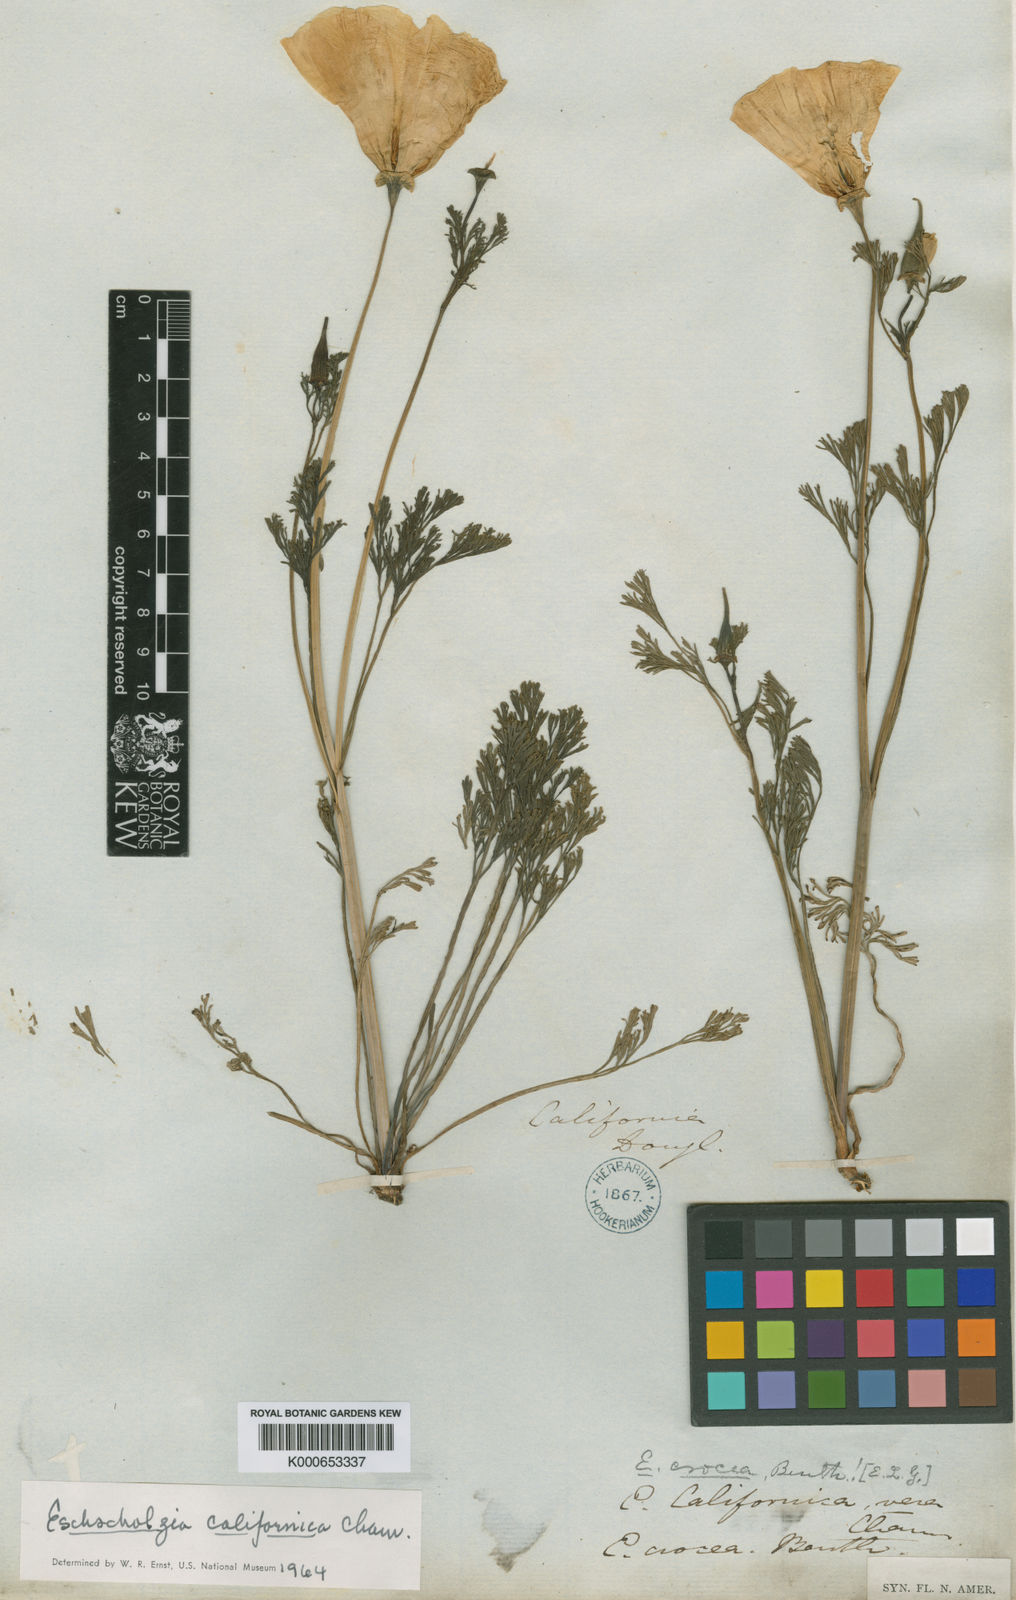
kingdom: Plantae
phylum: Tracheophyta
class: Magnoliopsida
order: Ranunculales
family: Papaveraceae
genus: Eschscholzia
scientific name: Eschscholzia californica
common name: California poppy
